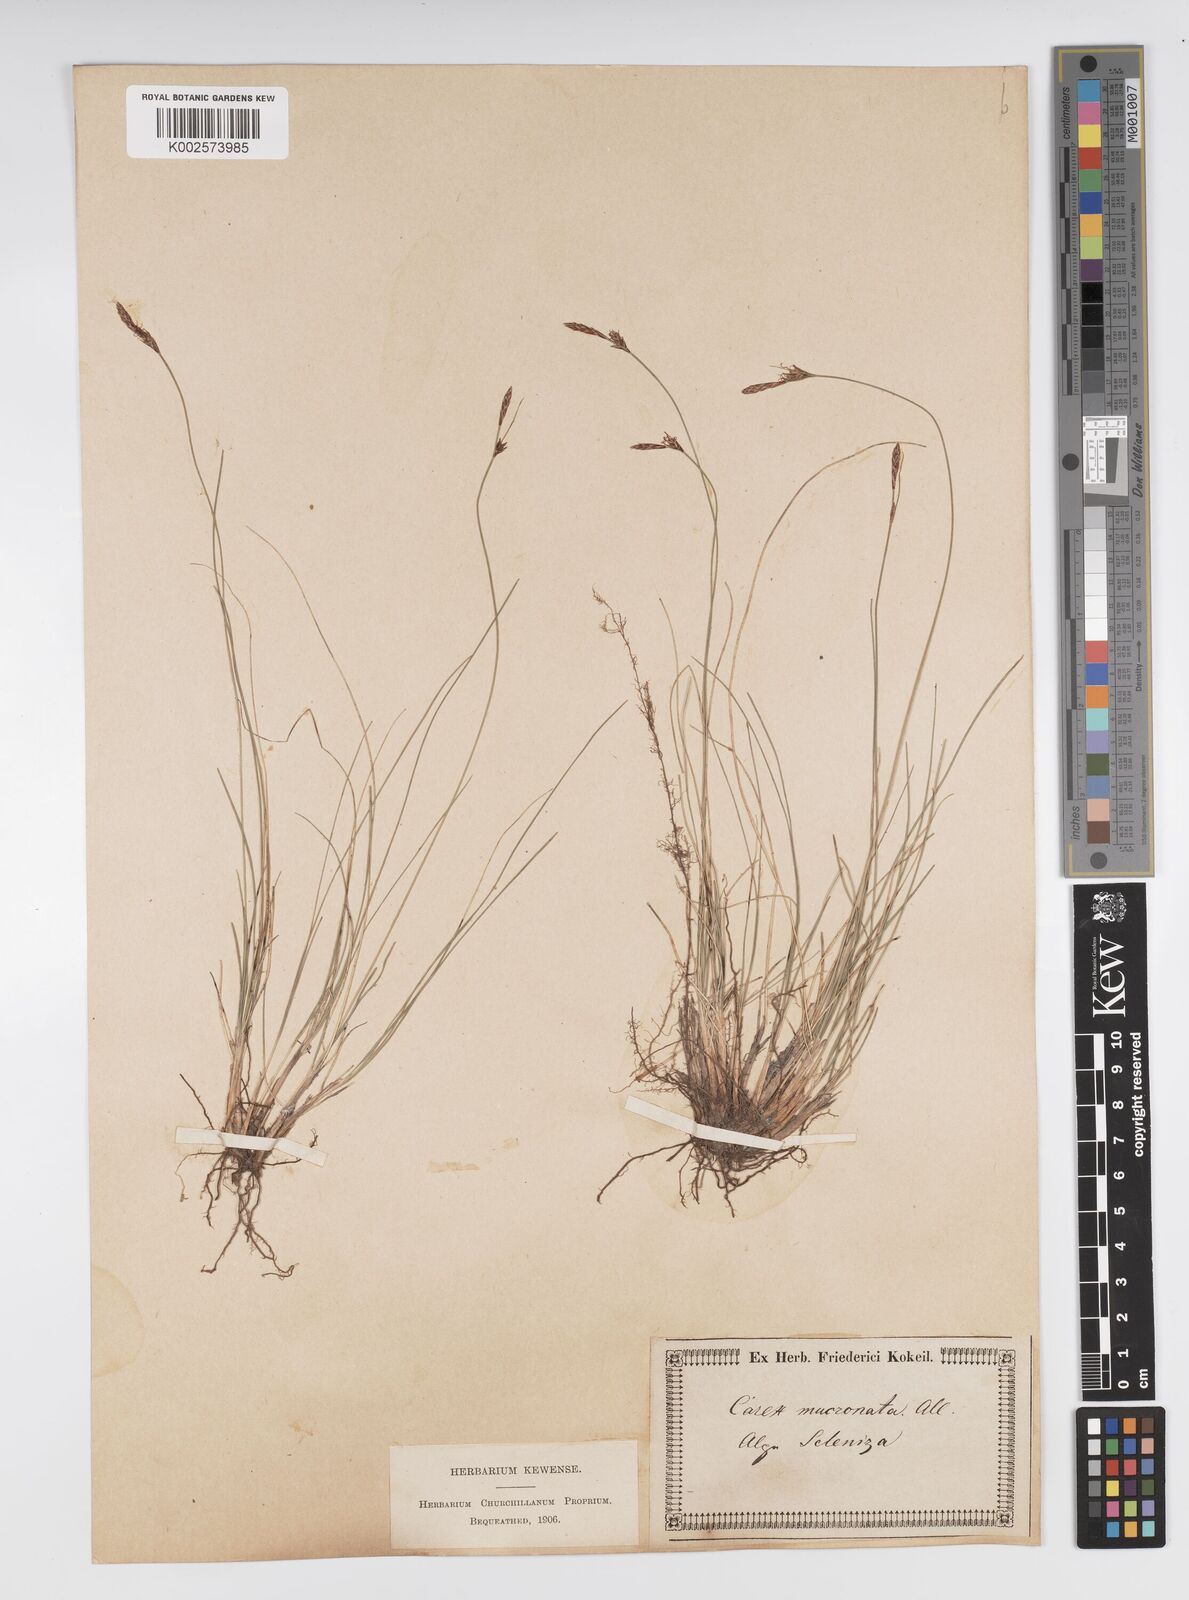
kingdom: Plantae
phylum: Tracheophyta
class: Liliopsida
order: Poales
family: Cyperaceae
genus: Carex
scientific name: Carex mucronata
